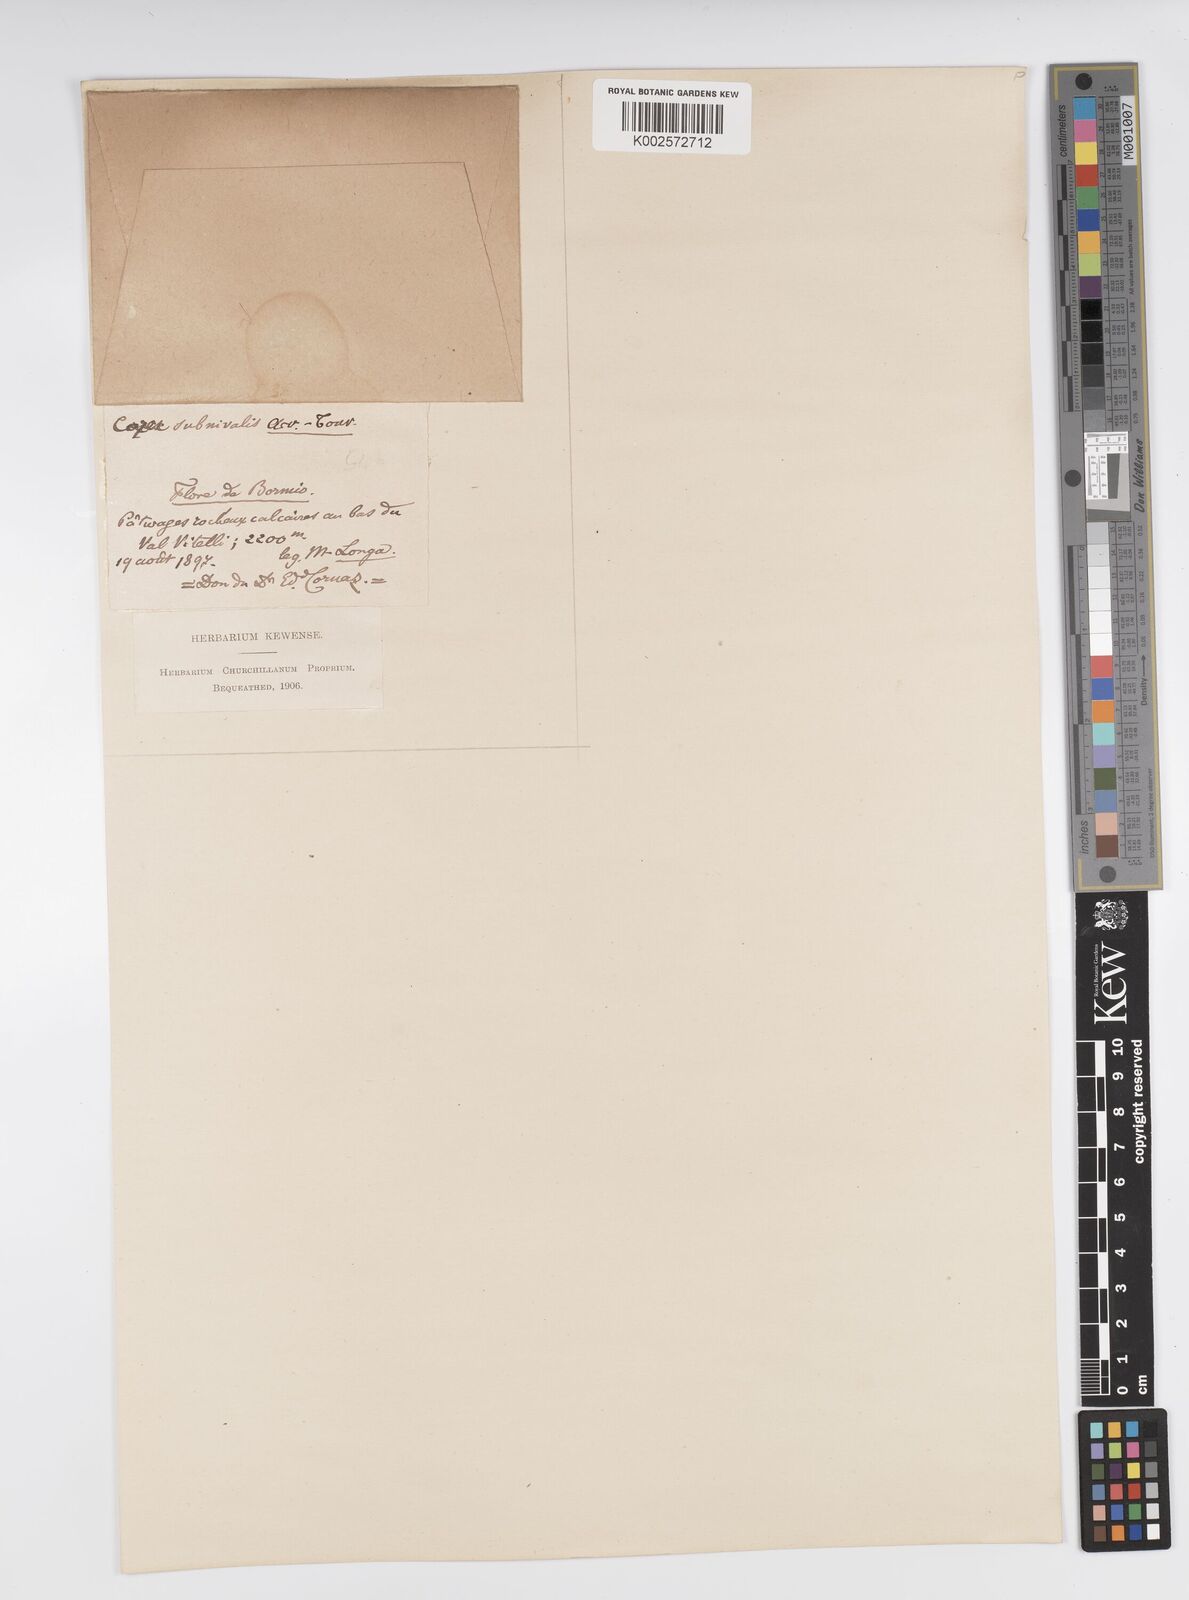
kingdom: Plantae
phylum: Tracheophyta
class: Liliopsida
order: Poales
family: Cyperaceae
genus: Carex
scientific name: Carex ornithopoda
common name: Bird's-foot sedge
